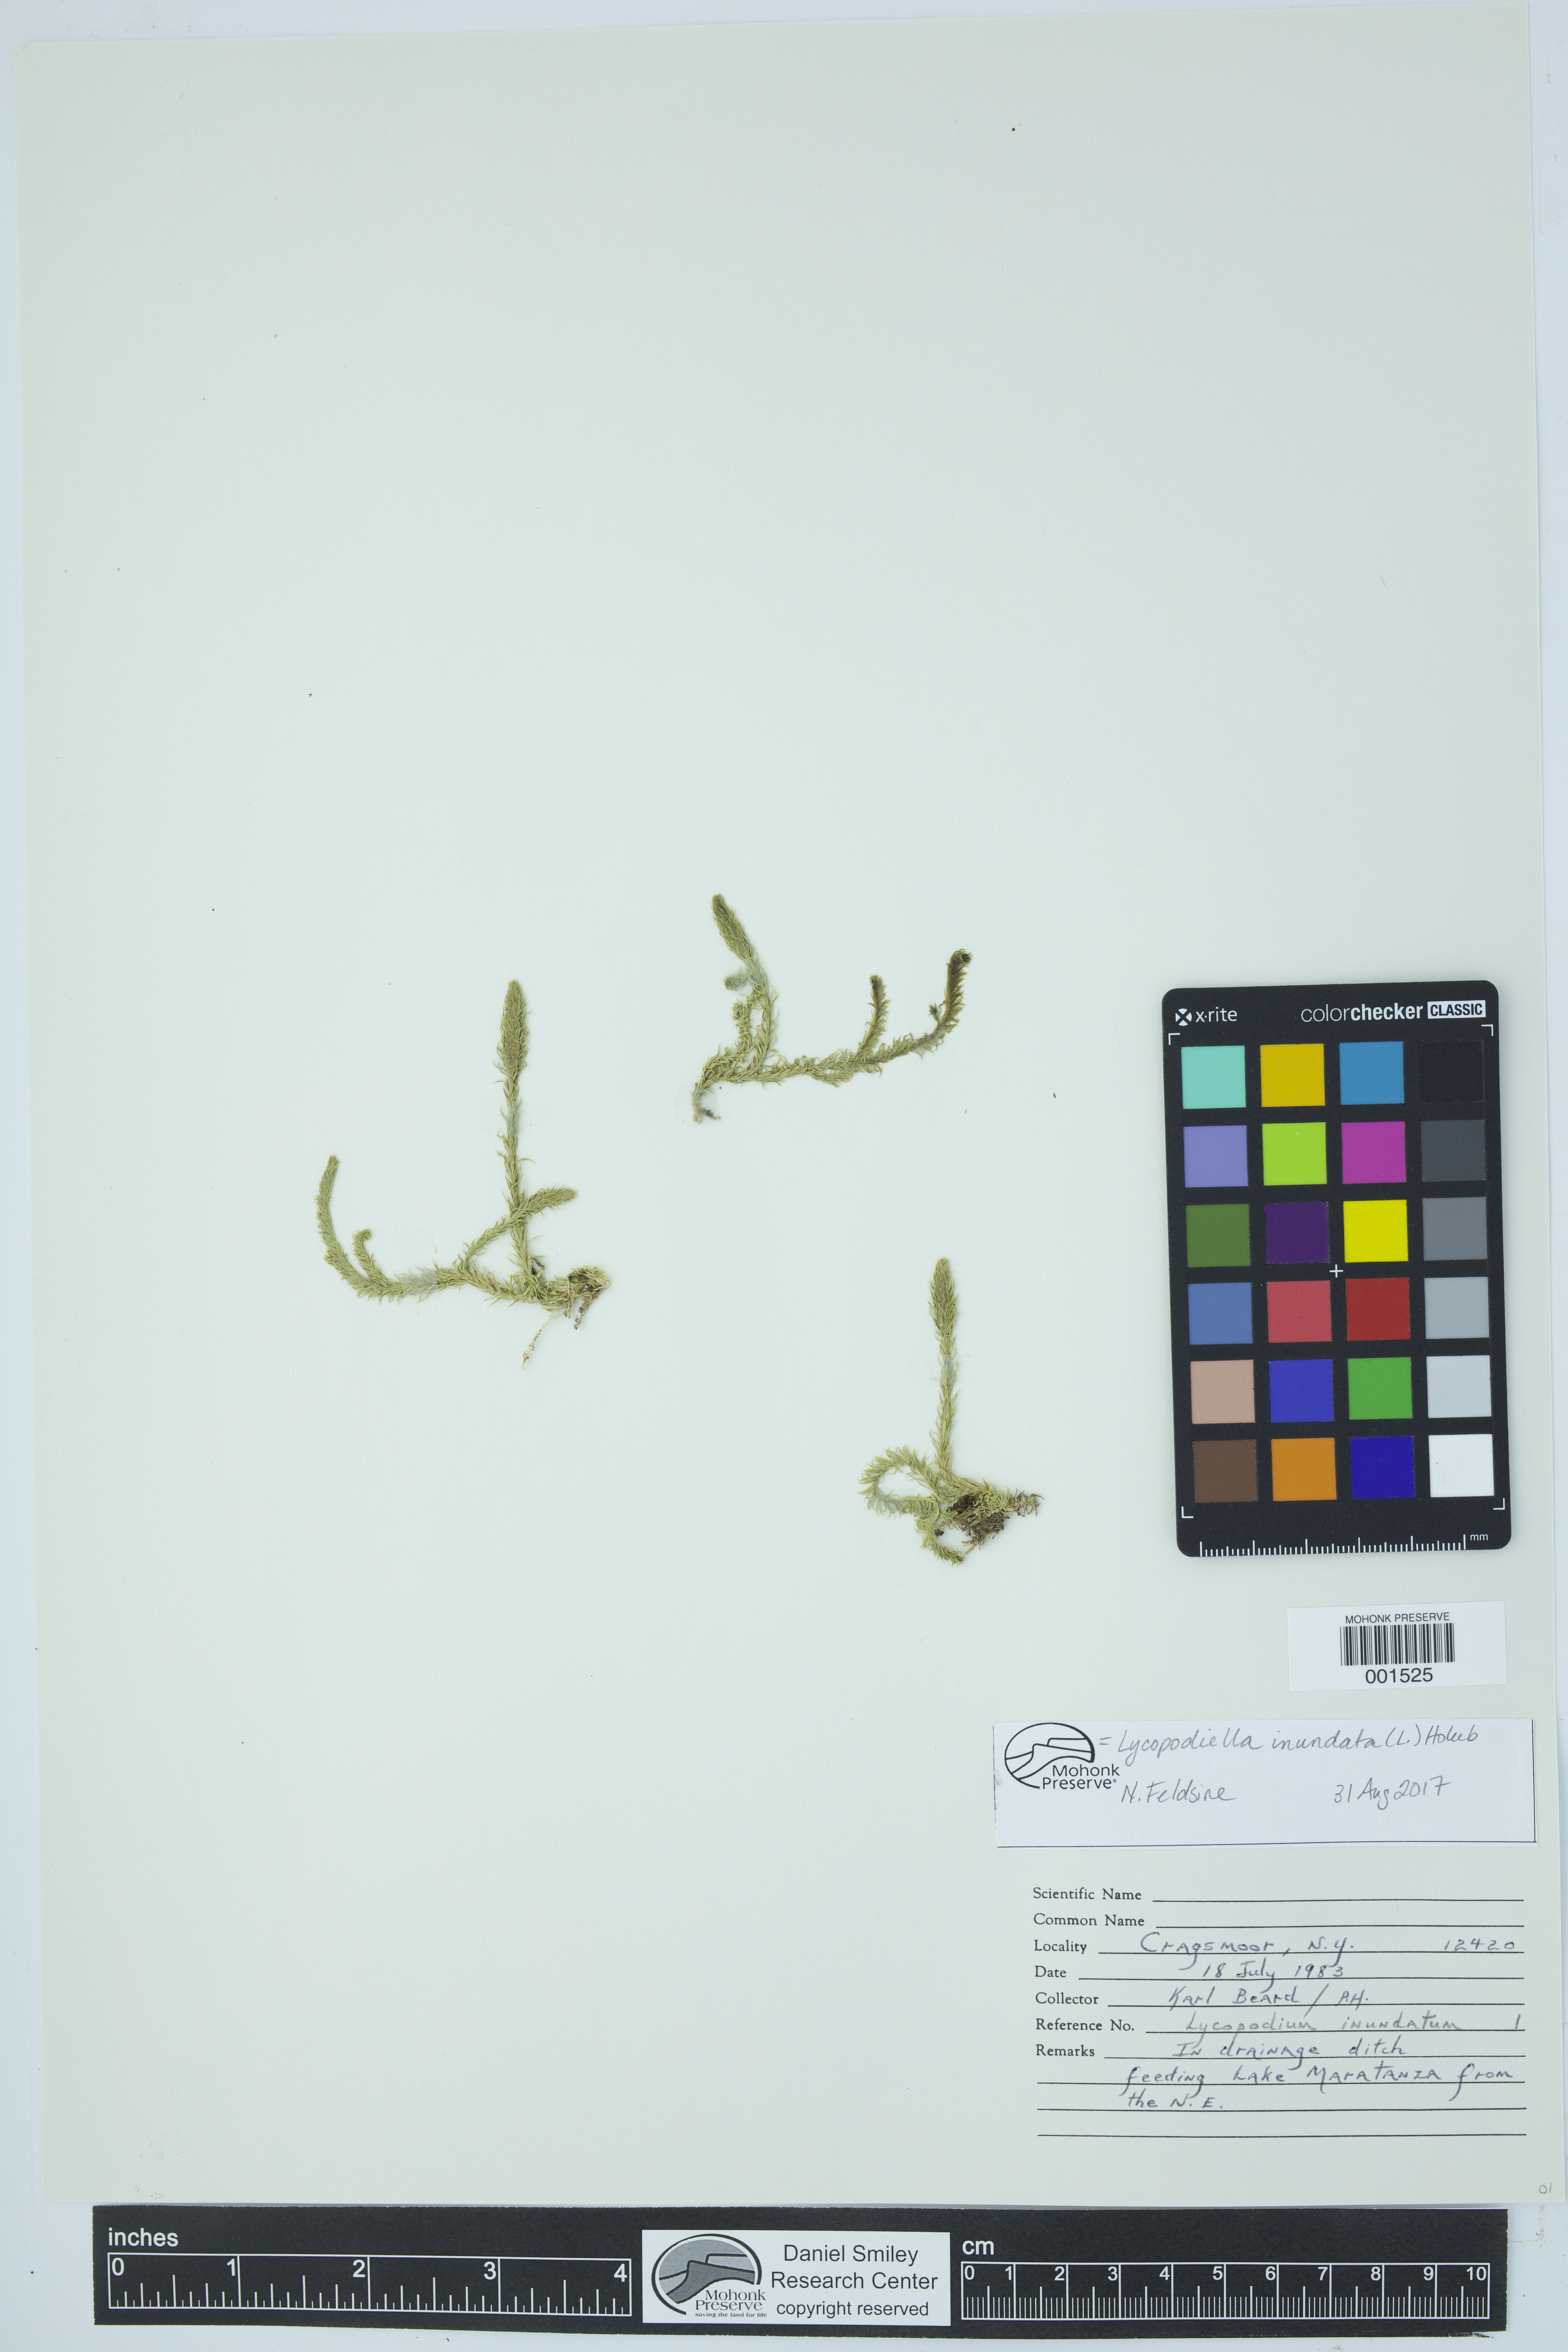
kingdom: Plantae
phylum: Tracheophyta
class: Lycopodiopsida
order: Lycopodiales
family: Lycopodiaceae
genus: Lycopodiella
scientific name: Lycopodiella inundata
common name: Marsh clubmoss
